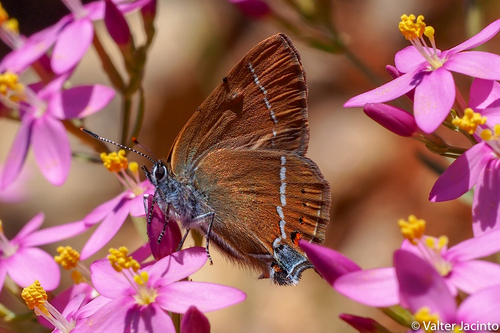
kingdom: Animalia
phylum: Arthropoda
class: Insecta
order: Lepidoptera
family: Lycaenidae
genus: Tuttiola
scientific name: Tuttiola spini
